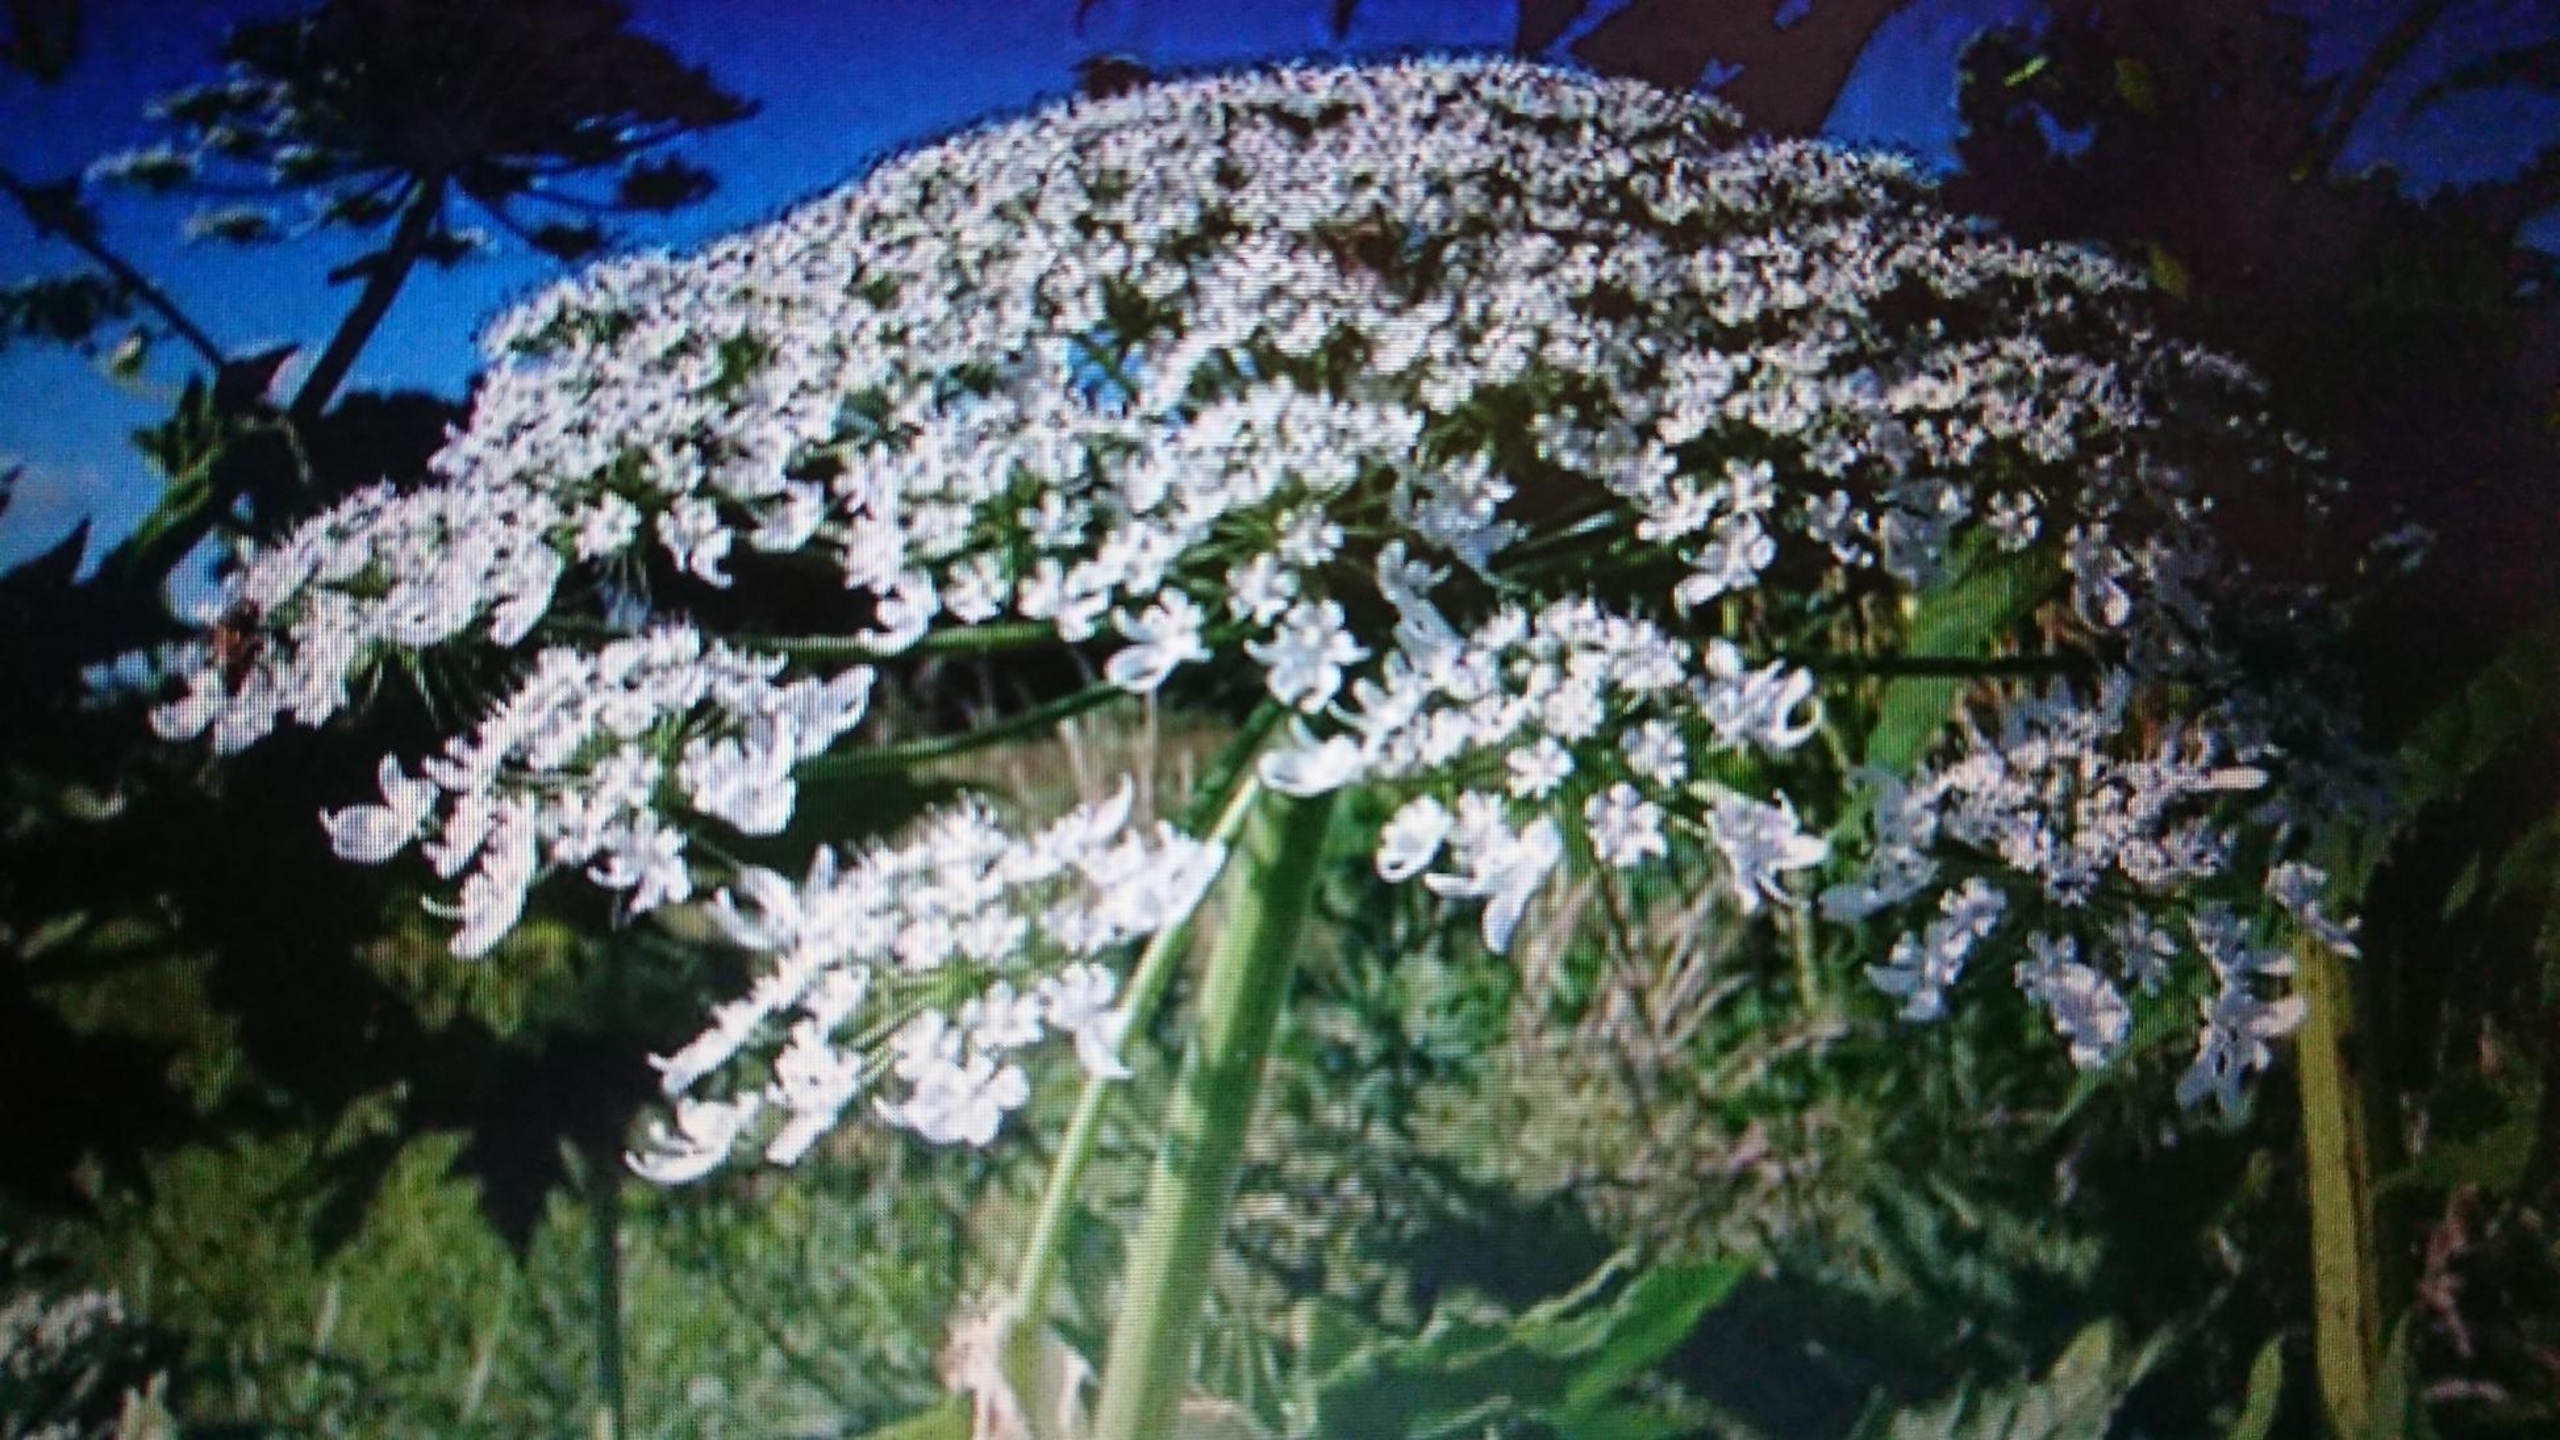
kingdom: Plantae
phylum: Tracheophyta
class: Magnoliopsida
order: Apiales
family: Apiaceae
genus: Heracleum
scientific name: Heracleum mantegazzianum
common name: Kæmpe-bjørneklo
